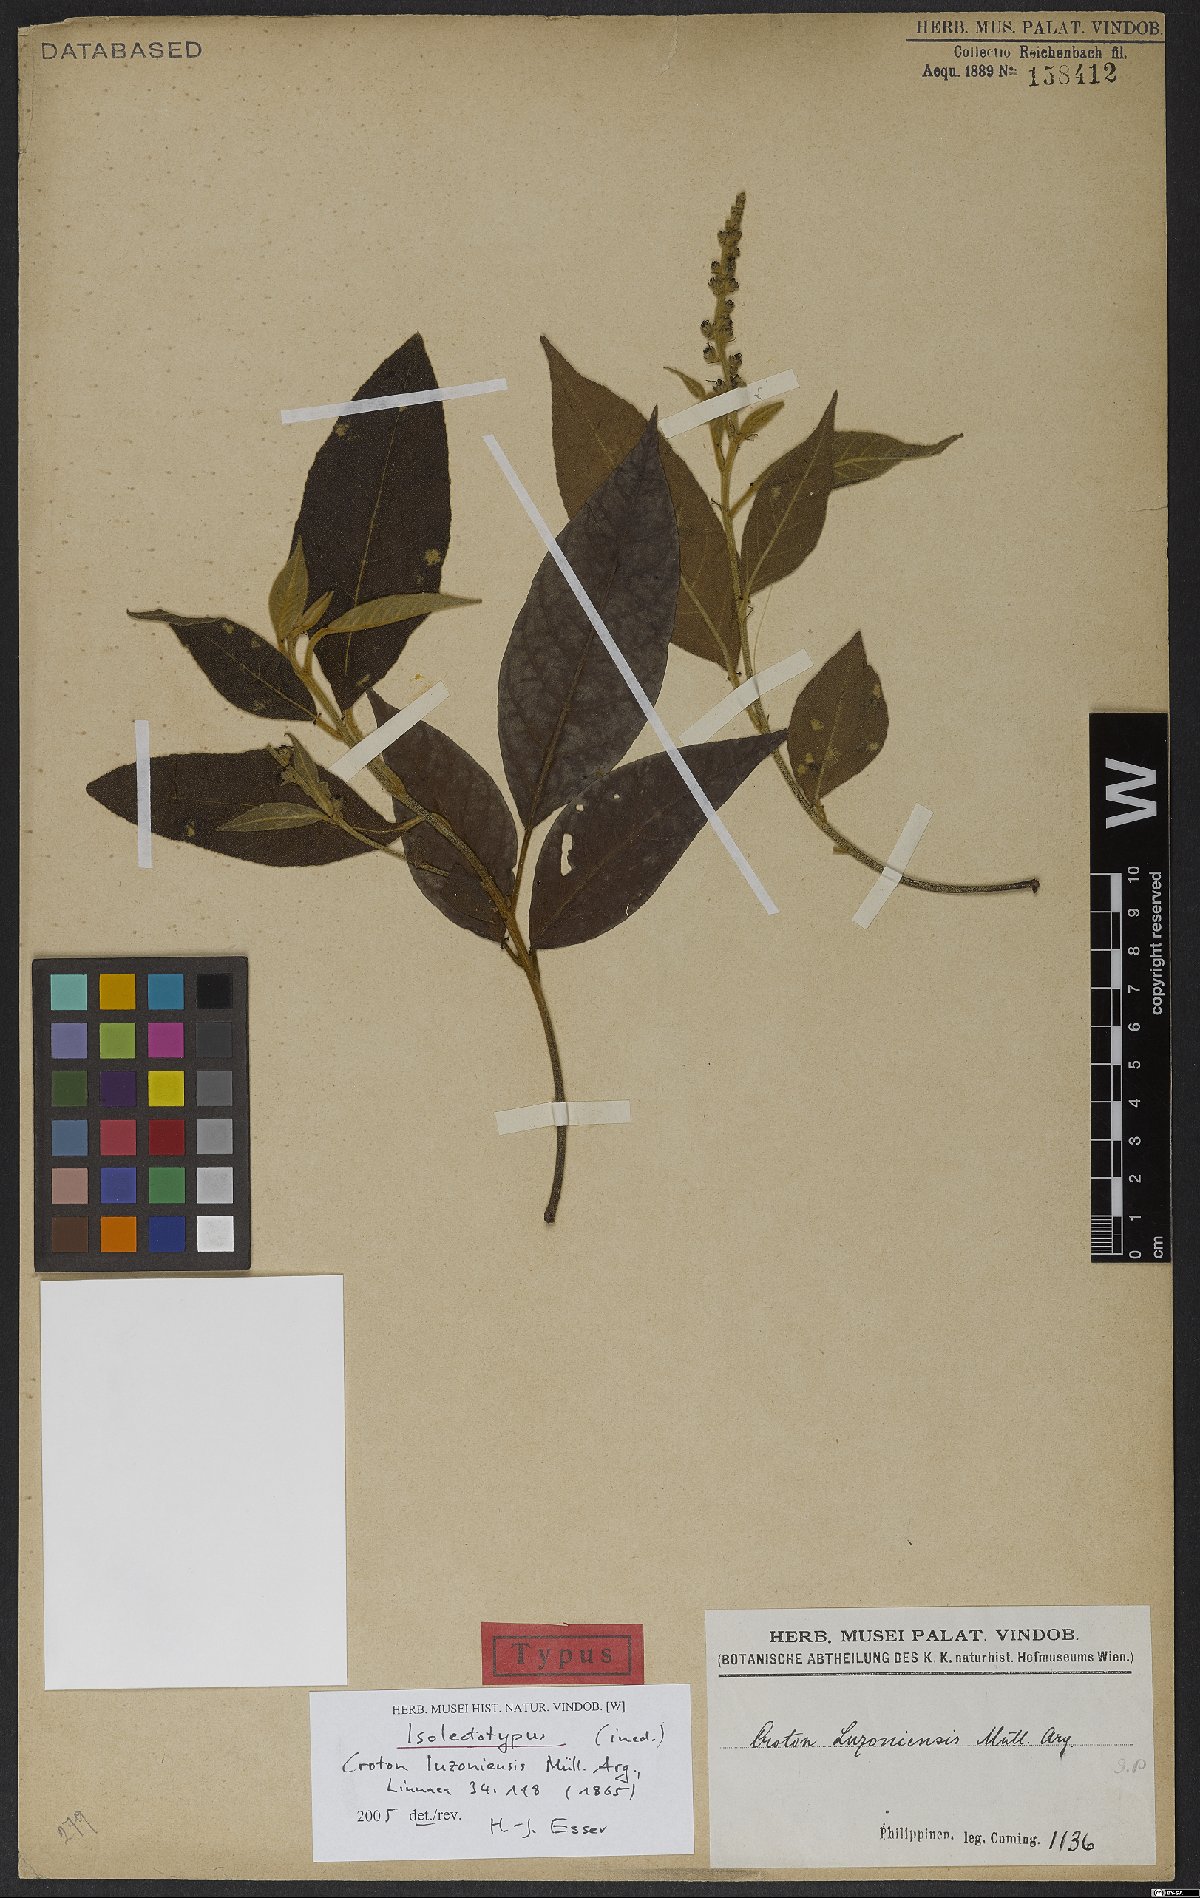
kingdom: Plantae
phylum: Tracheophyta
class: Magnoliopsida
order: Malpighiales
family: Euphorbiaceae
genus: Croton
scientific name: Croton luzoniensis
